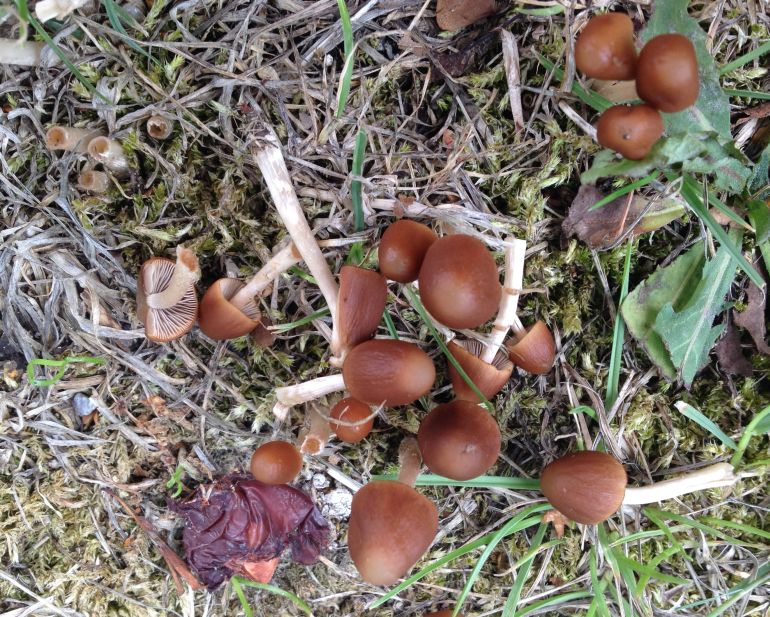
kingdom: Fungi
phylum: Basidiomycota
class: Agaricomycetes
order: Agaricales
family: Psathyrellaceae
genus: Parasola
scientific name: Parasola conopilea
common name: kegle-hjulhat
